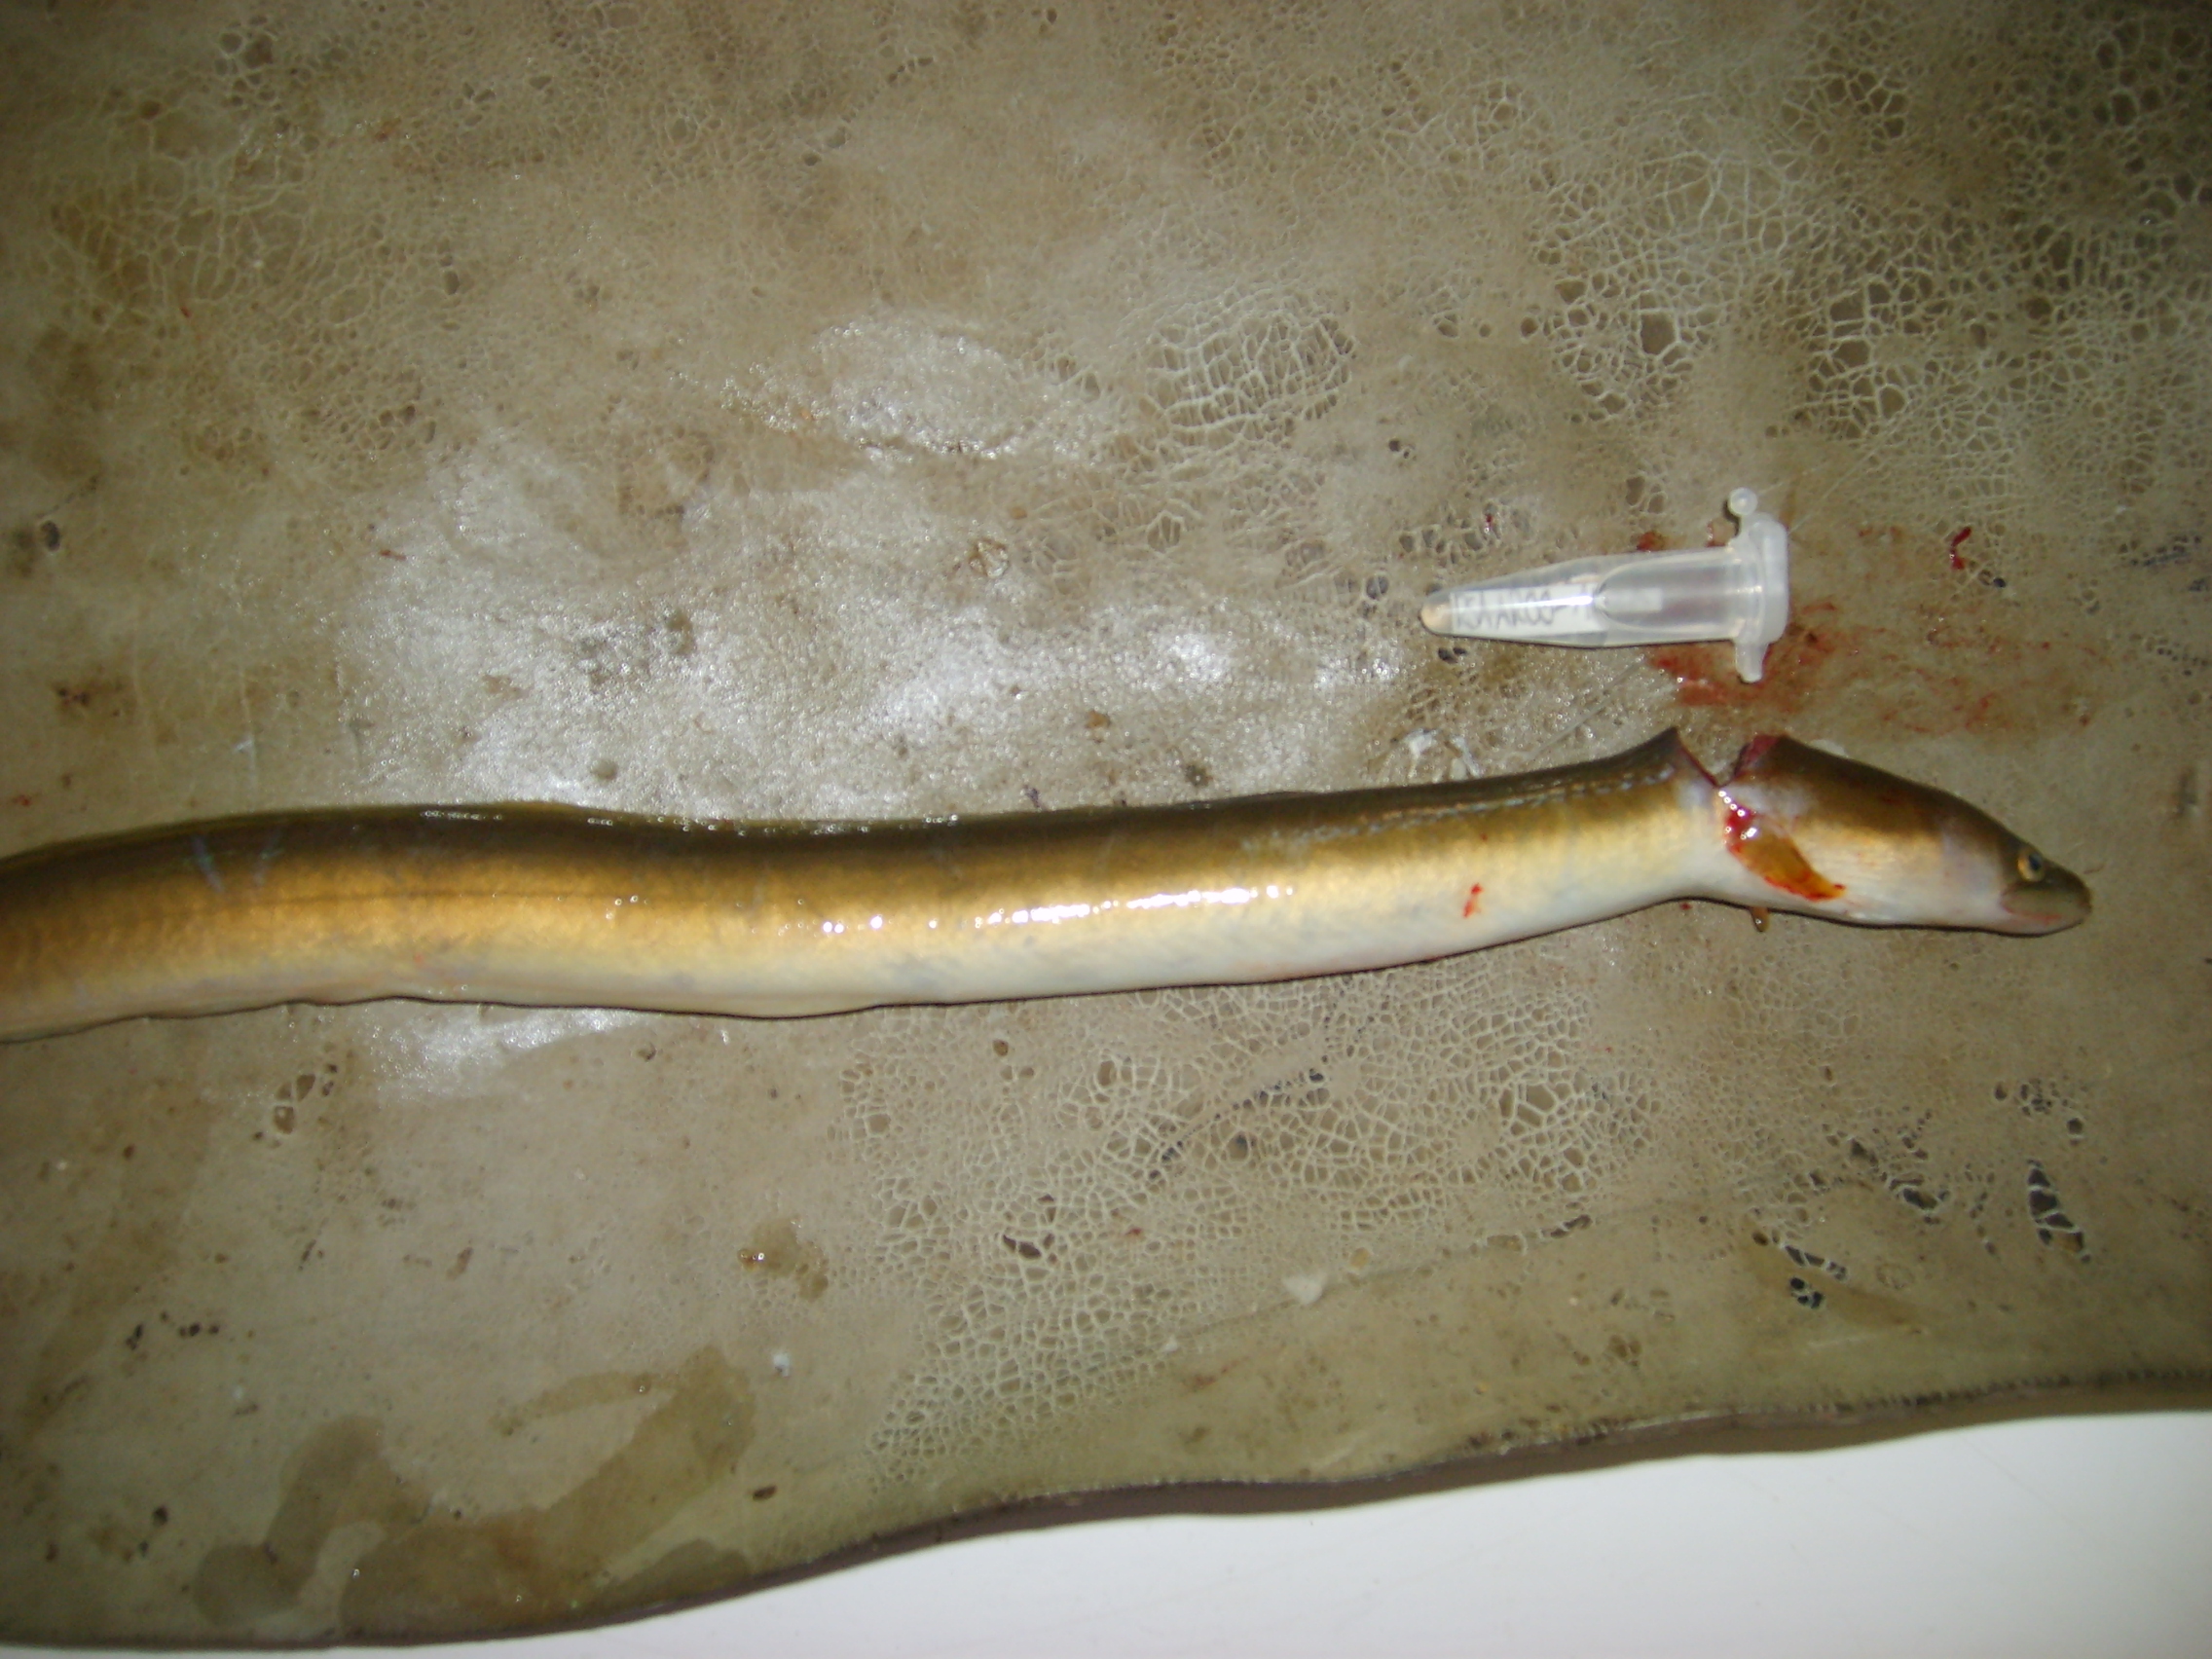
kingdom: Animalia
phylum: Chordata
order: Anguilliformes
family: Anguillidae
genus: Anguilla
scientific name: Anguilla mossambica
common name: African longfin eel
